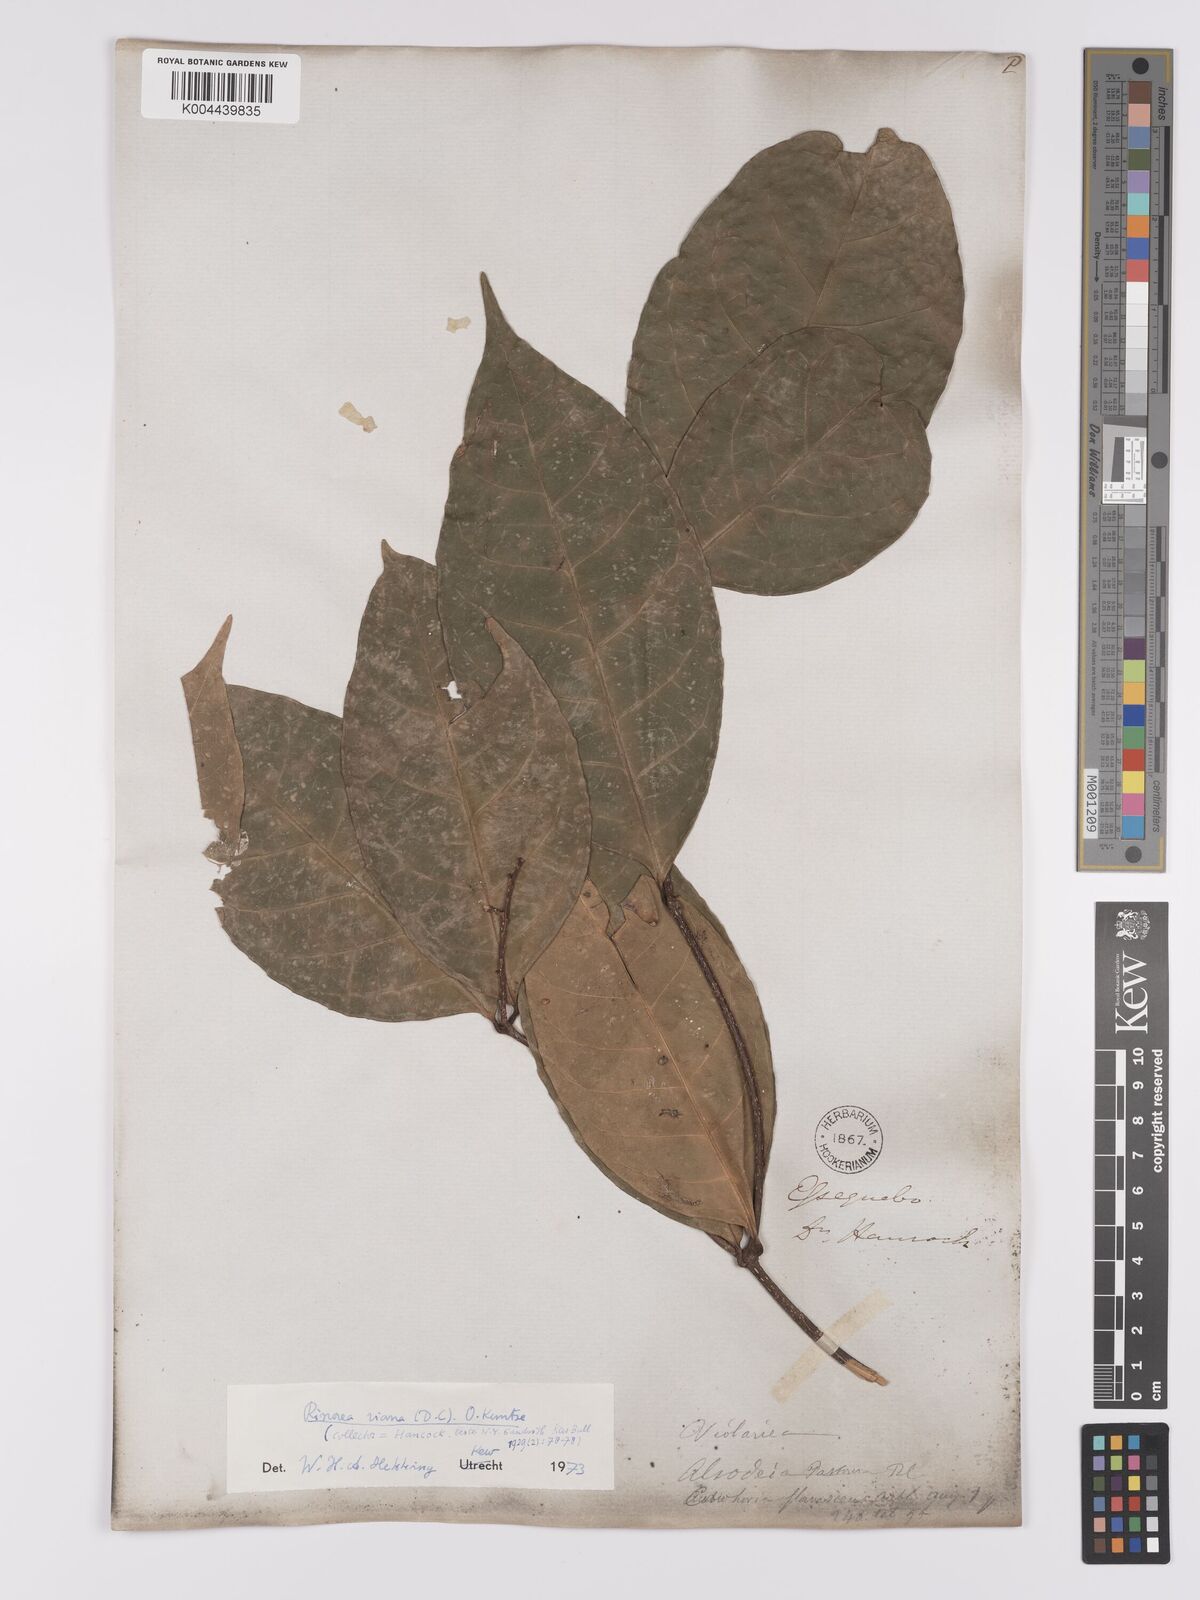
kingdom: Plantae
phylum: Tracheophyta
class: Magnoliopsida
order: Malpighiales
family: Violaceae
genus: Rinorea
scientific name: Rinorea riana
